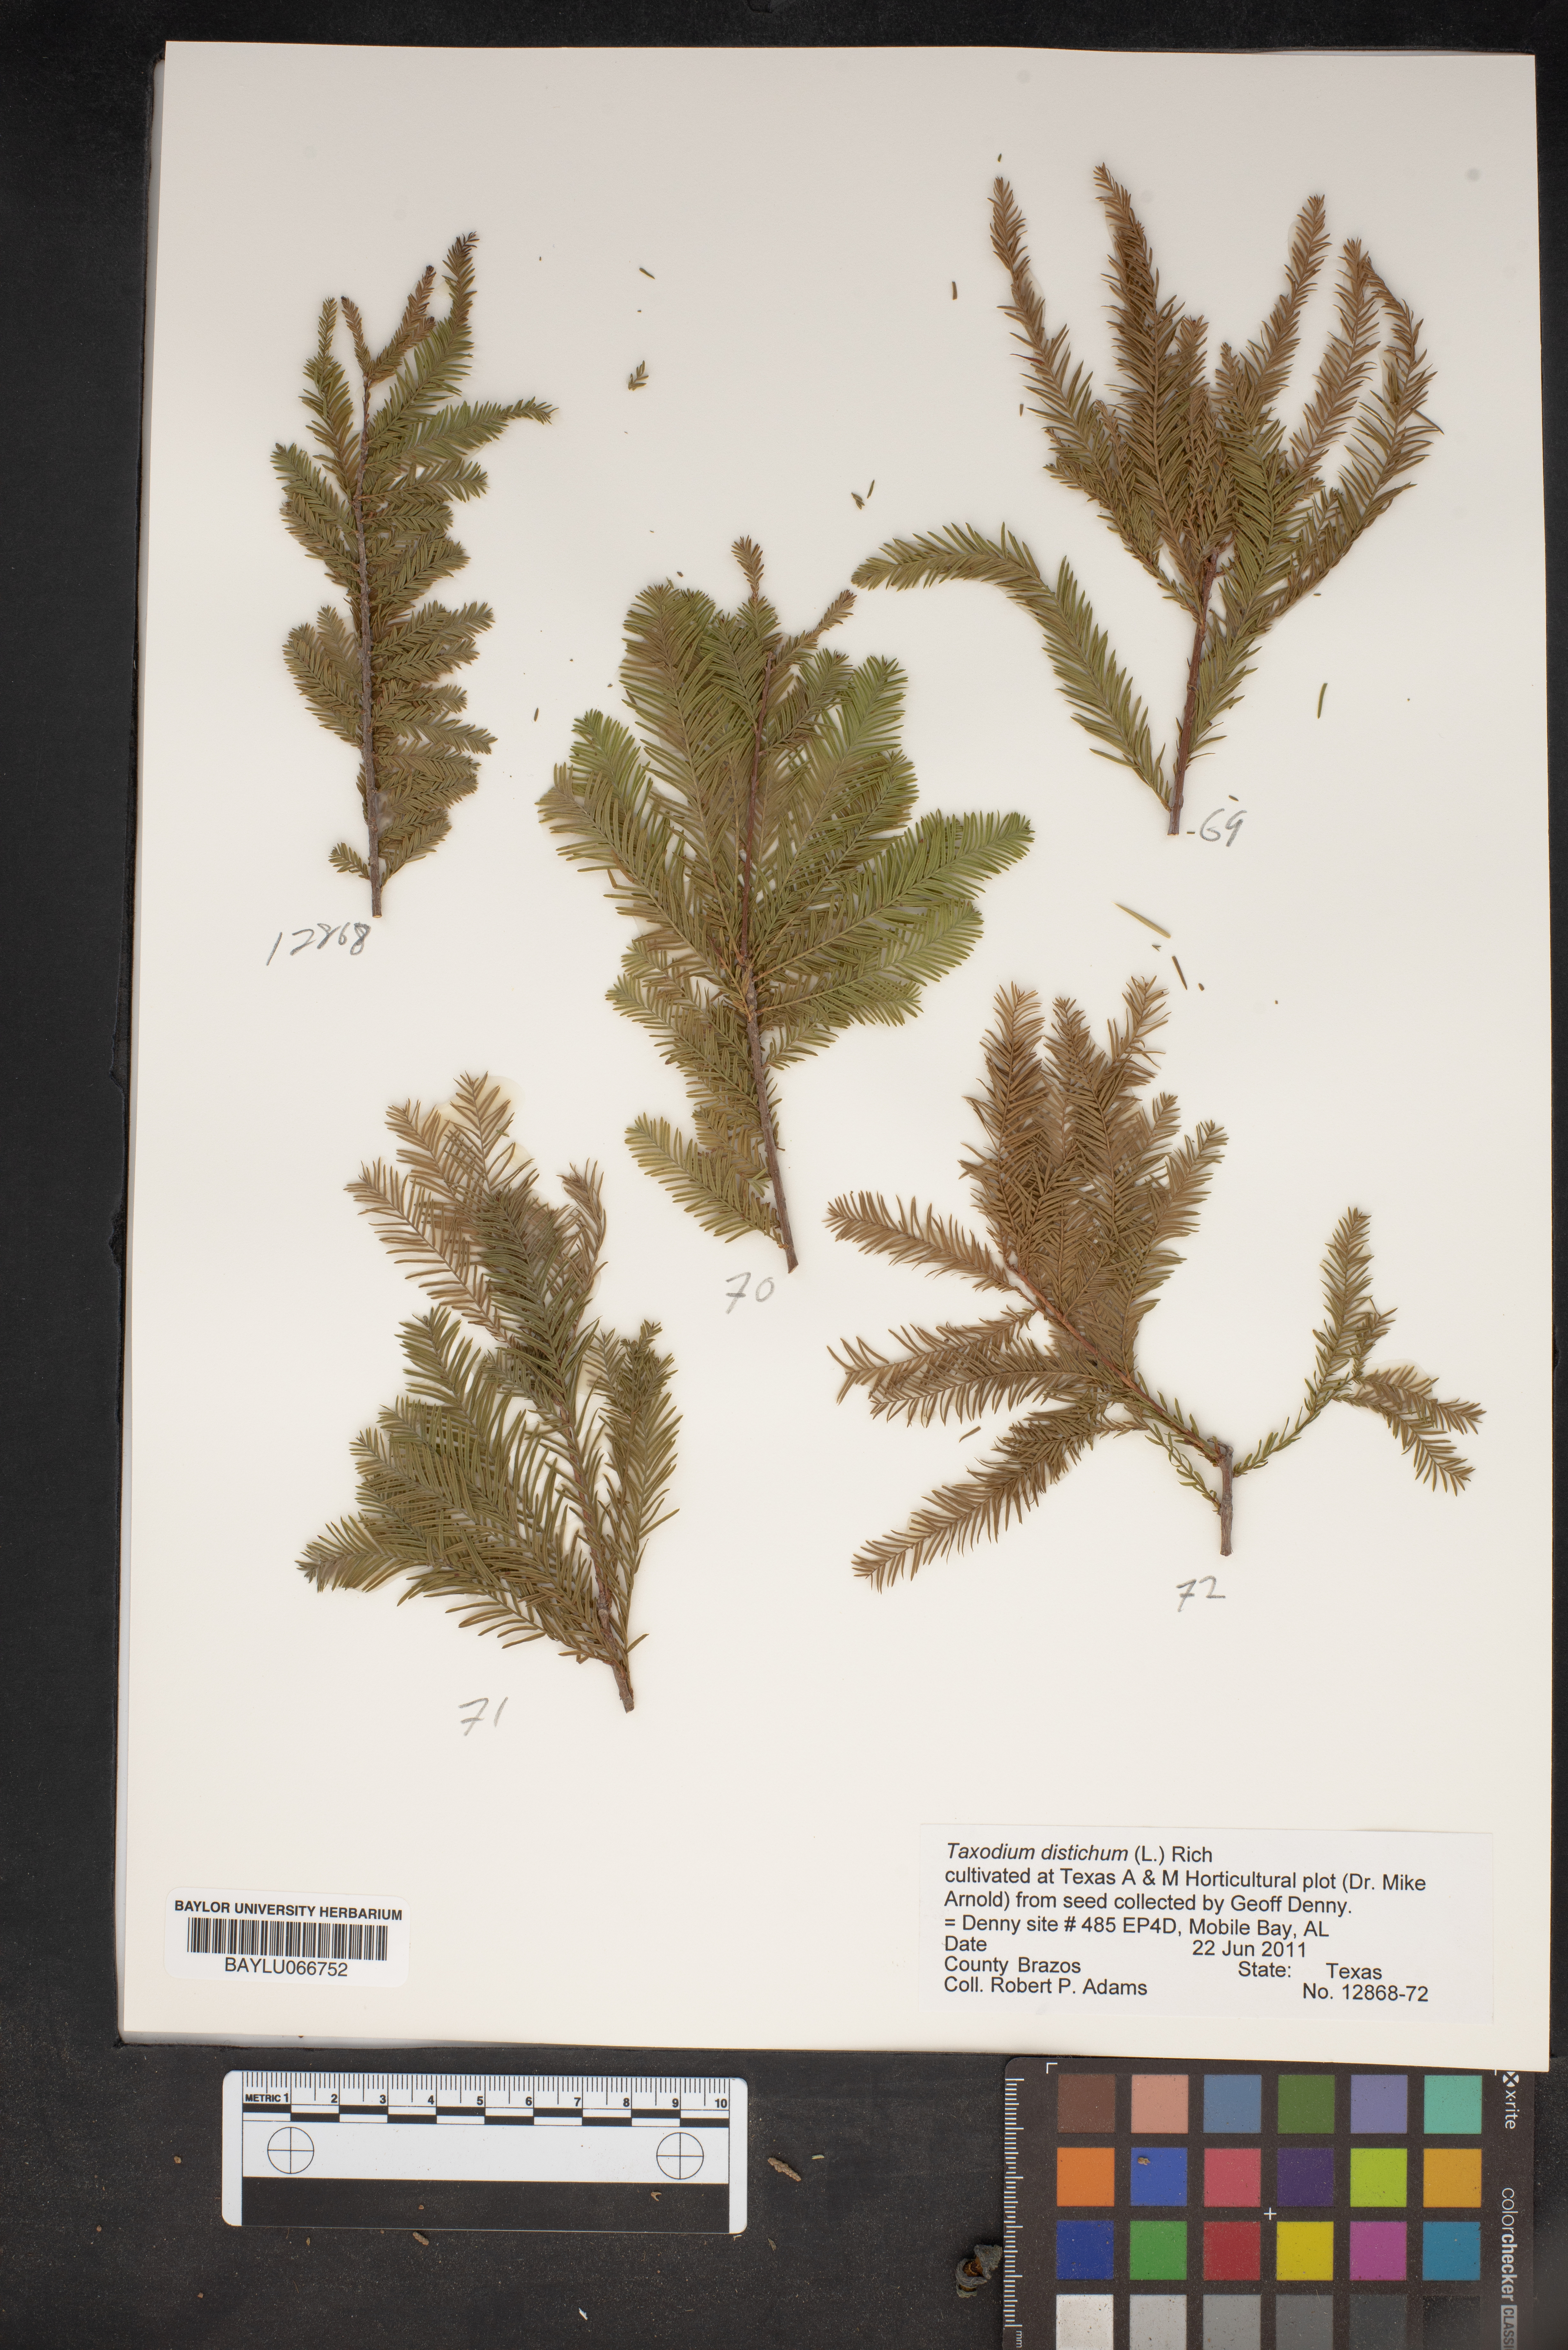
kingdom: Plantae
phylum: Tracheophyta
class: Pinopsida
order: Pinales
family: Cupressaceae
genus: Taxodium
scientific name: Taxodium distichum
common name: Bald cypress
